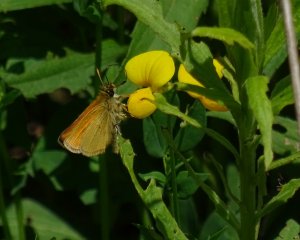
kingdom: Animalia
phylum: Arthropoda
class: Insecta
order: Lepidoptera
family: Hesperiidae
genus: Thymelicus
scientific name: Thymelicus lineola
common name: European Skipper
